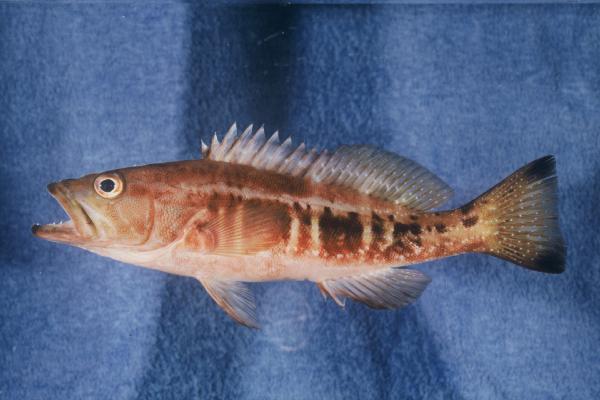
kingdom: Animalia
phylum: Chordata
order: Perciformes
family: Serranidae
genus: Serranus
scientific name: Serranus atricauda
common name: Blacktail comber
